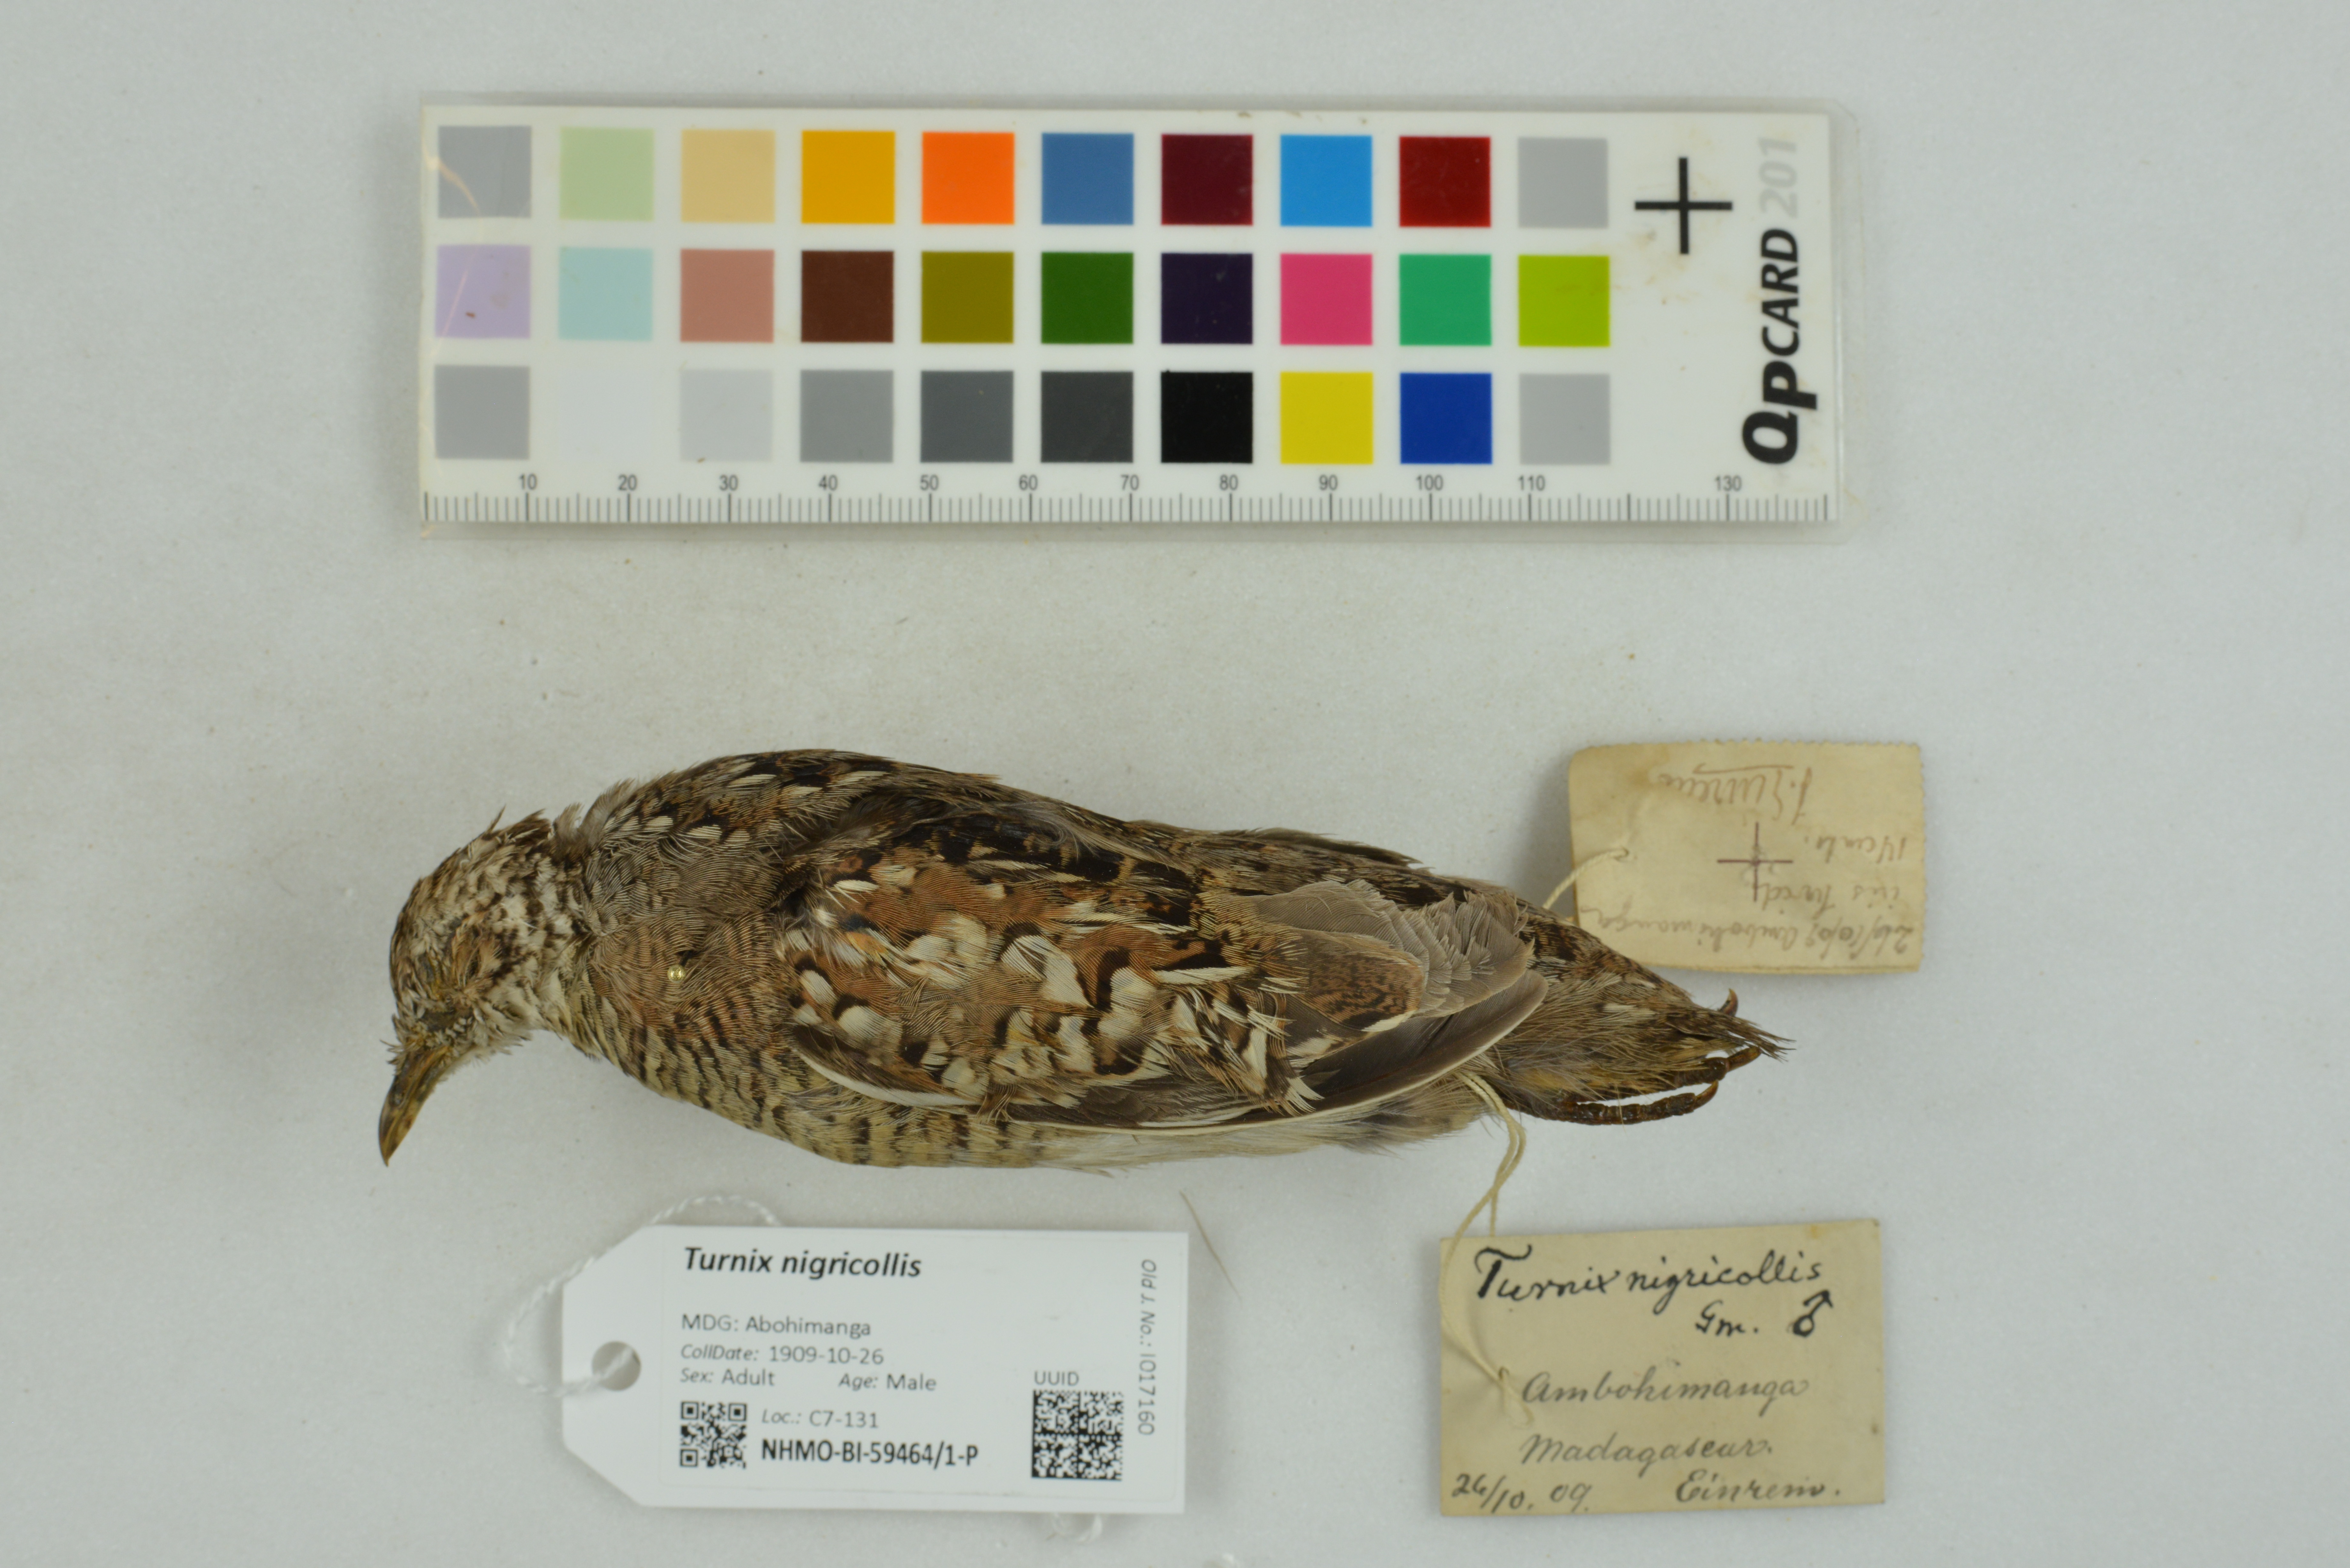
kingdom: Animalia
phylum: Chordata
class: Aves
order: Charadriiformes
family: Turnicidae
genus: Turnix
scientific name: Turnix nigricollis
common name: Madagascar buttonquail
